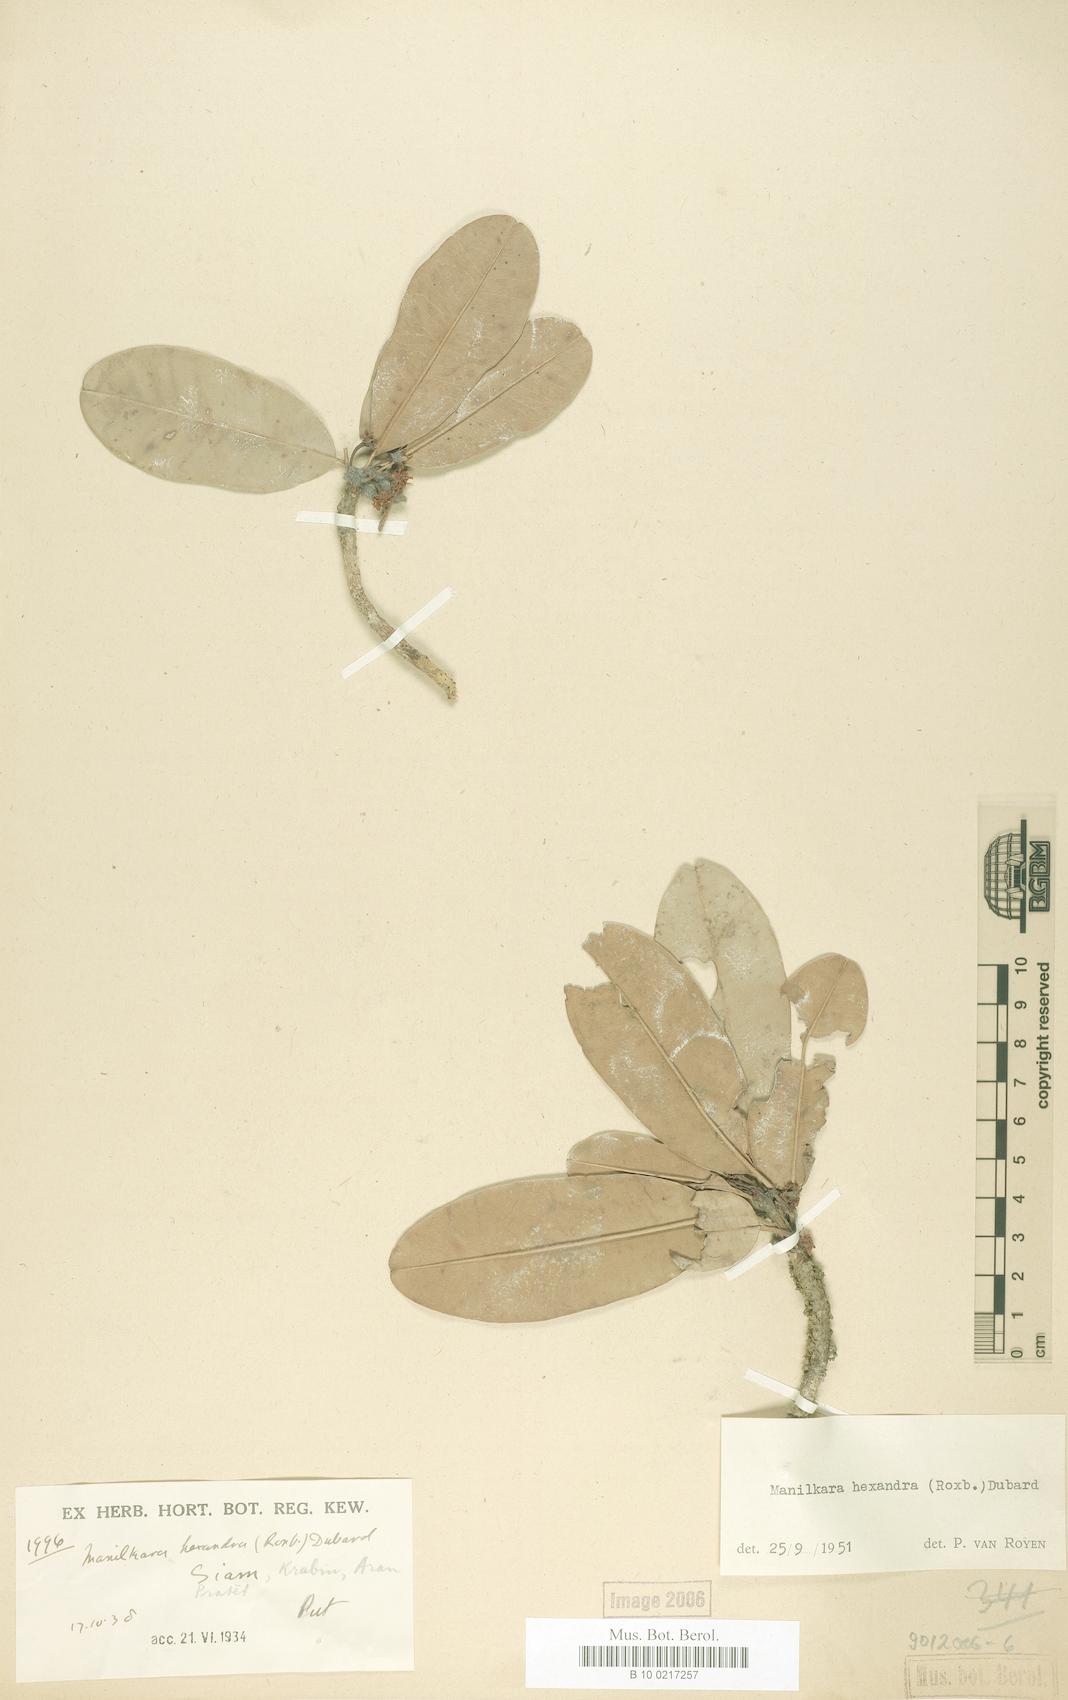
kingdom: Plantae
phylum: Tracheophyta
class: Magnoliopsida
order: Ericales
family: Sapotaceae
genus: Manilkara
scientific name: Manilkara hexandra
